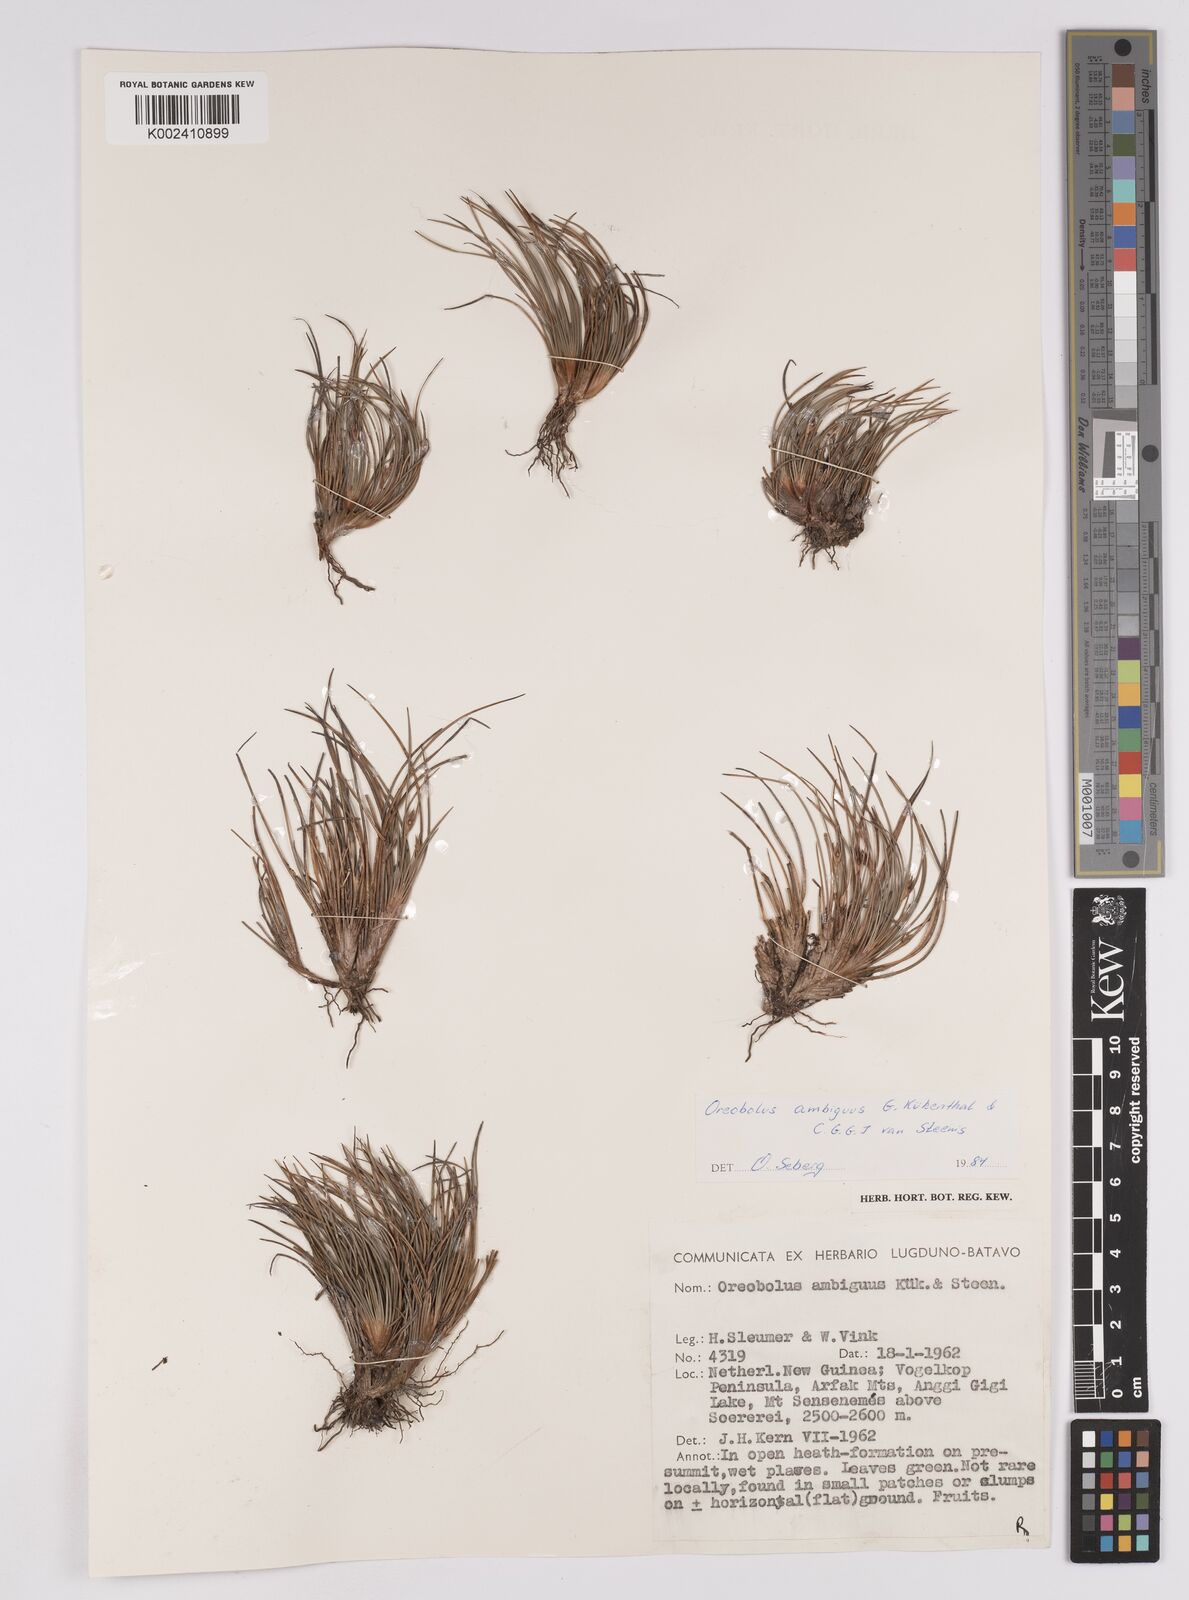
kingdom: Plantae
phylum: Tracheophyta
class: Liliopsida
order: Poales
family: Cyperaceae
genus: Oreobolus
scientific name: Oreobolus ambiguus
